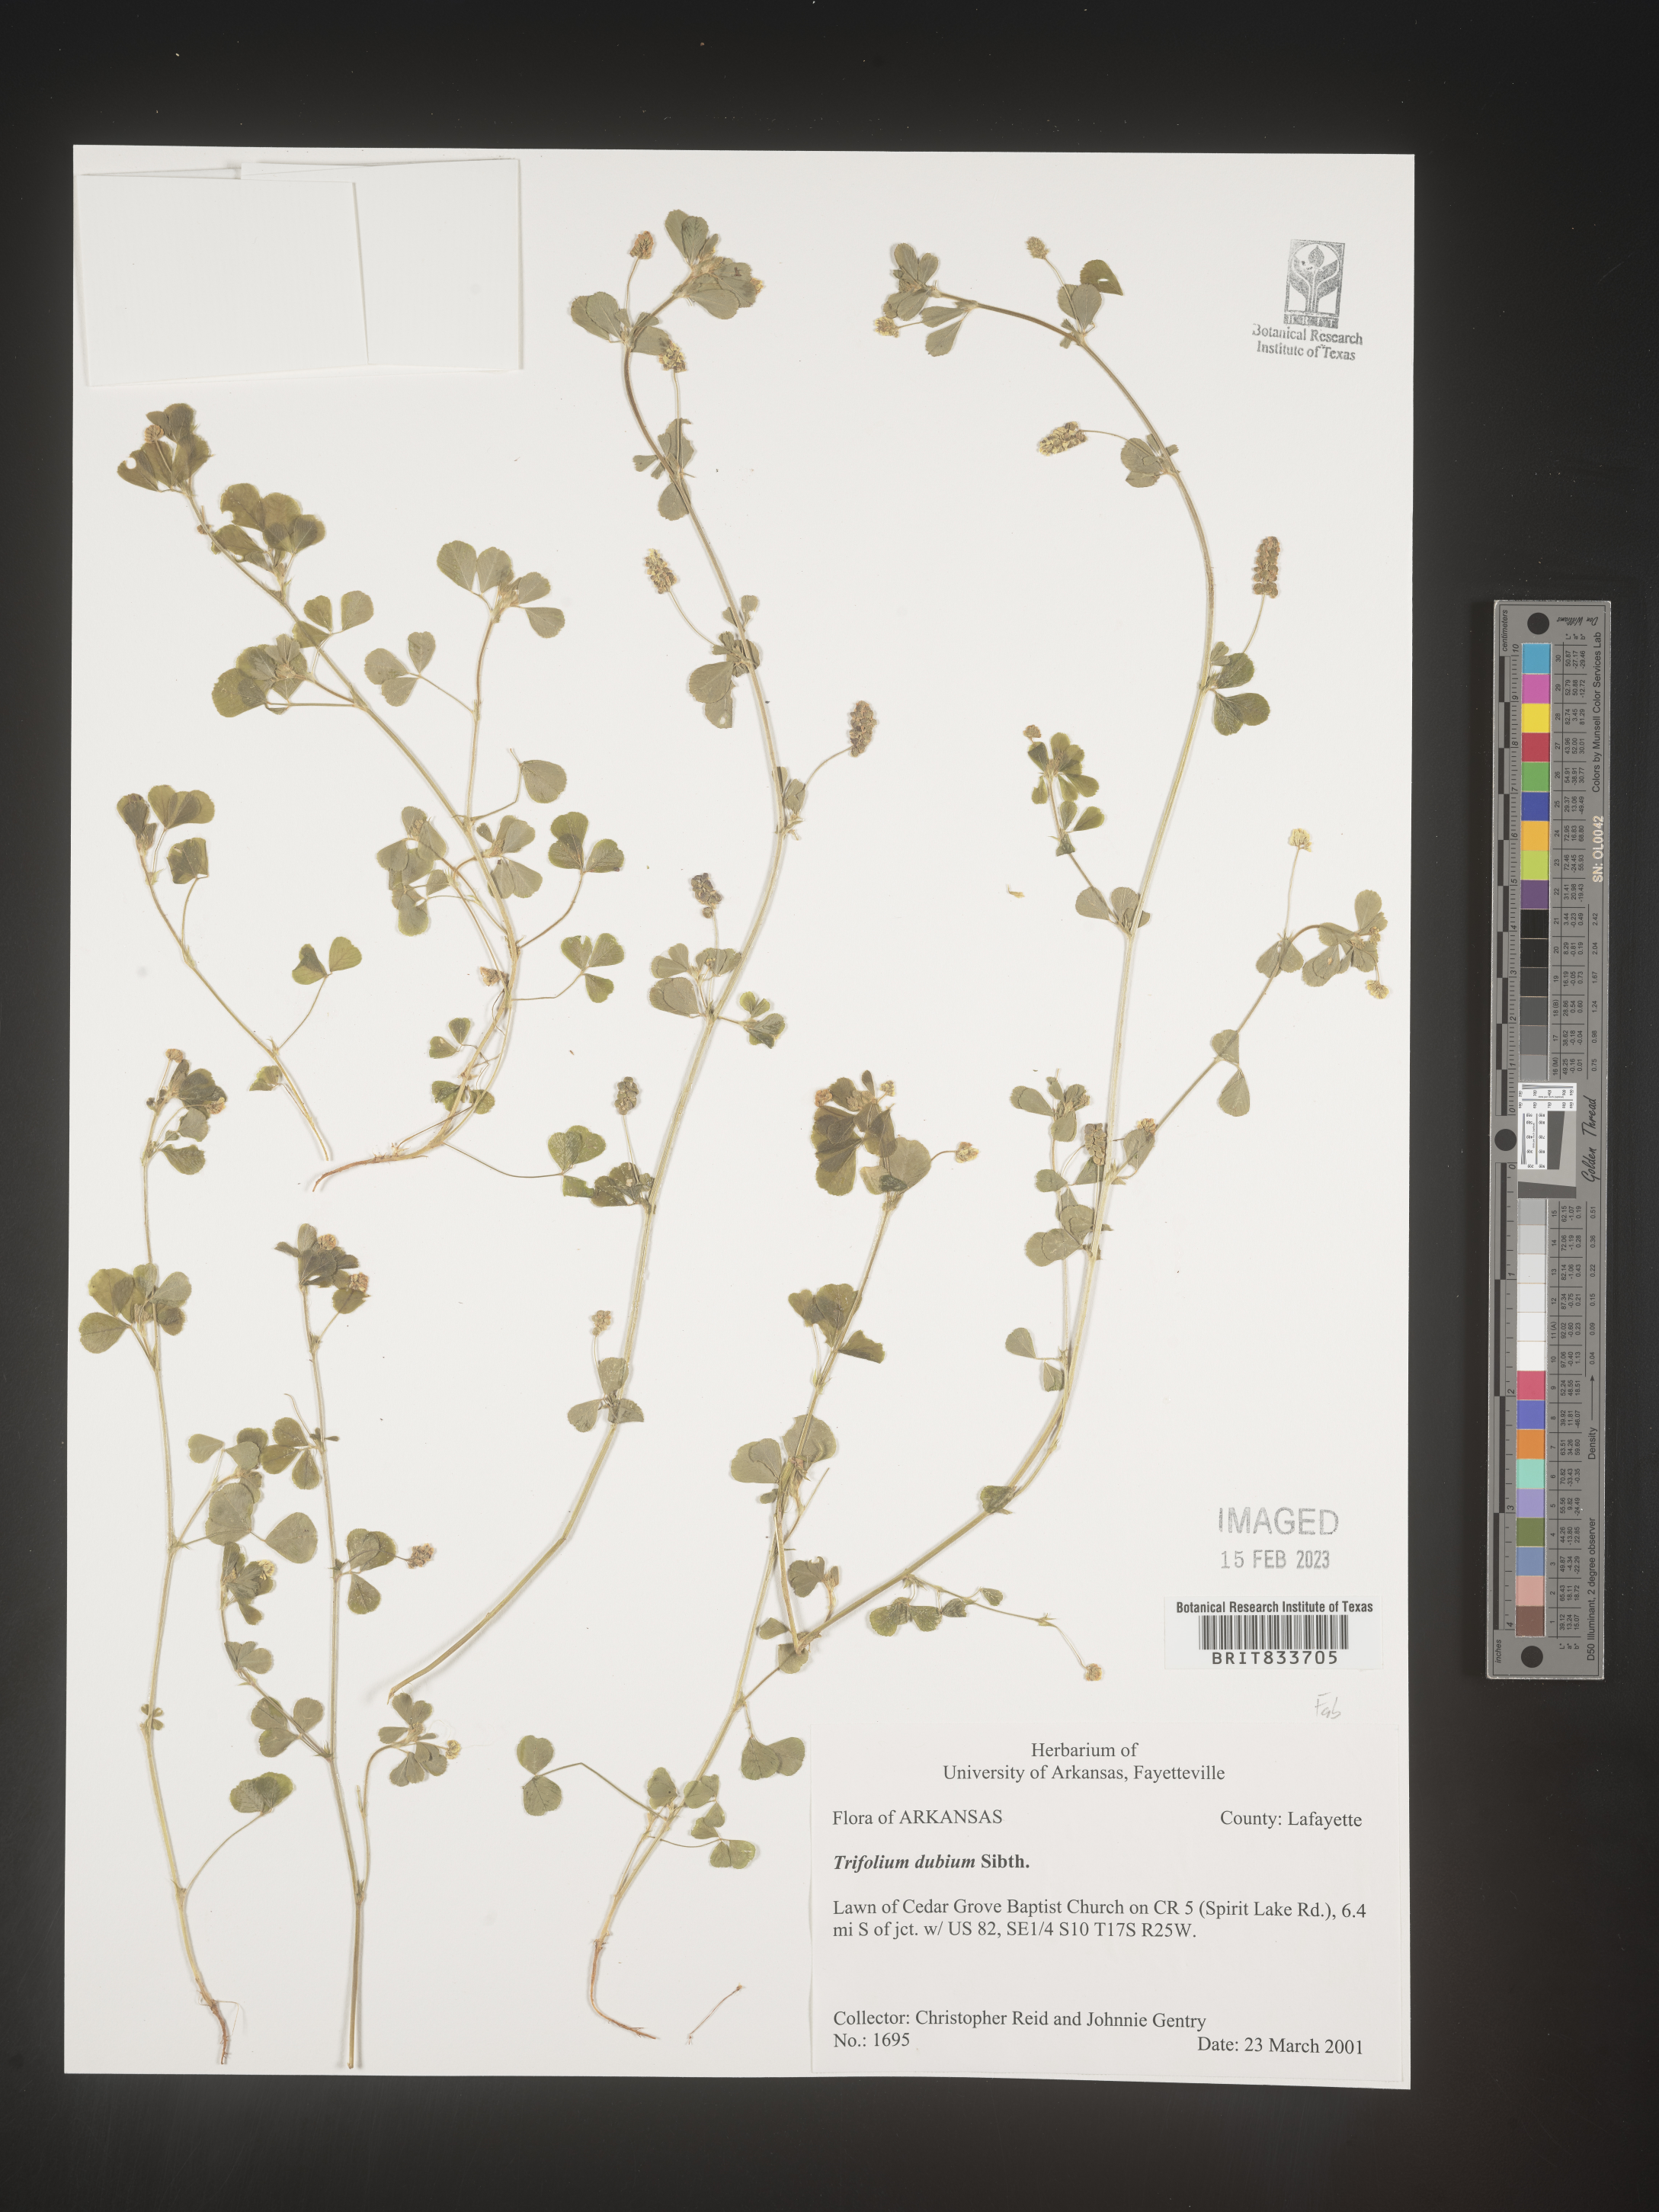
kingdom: Plantae
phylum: Tracheophyta
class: Magnoliopsida
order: Fabales
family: Fabaceae
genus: Trifolium
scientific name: Trifolium dubium
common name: Suckling clover
